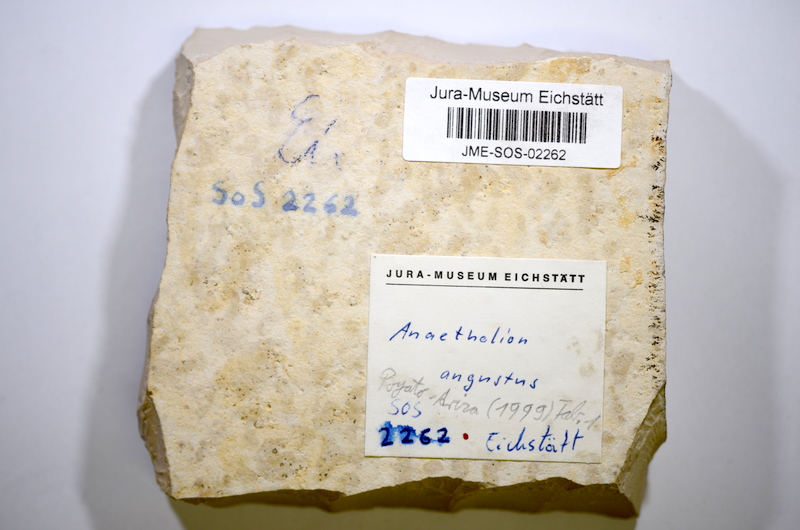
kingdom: Animalia
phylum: Chordata
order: Elopiformes
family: Anaethalionidae
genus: Anaethalion
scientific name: Anaethalion angustus
